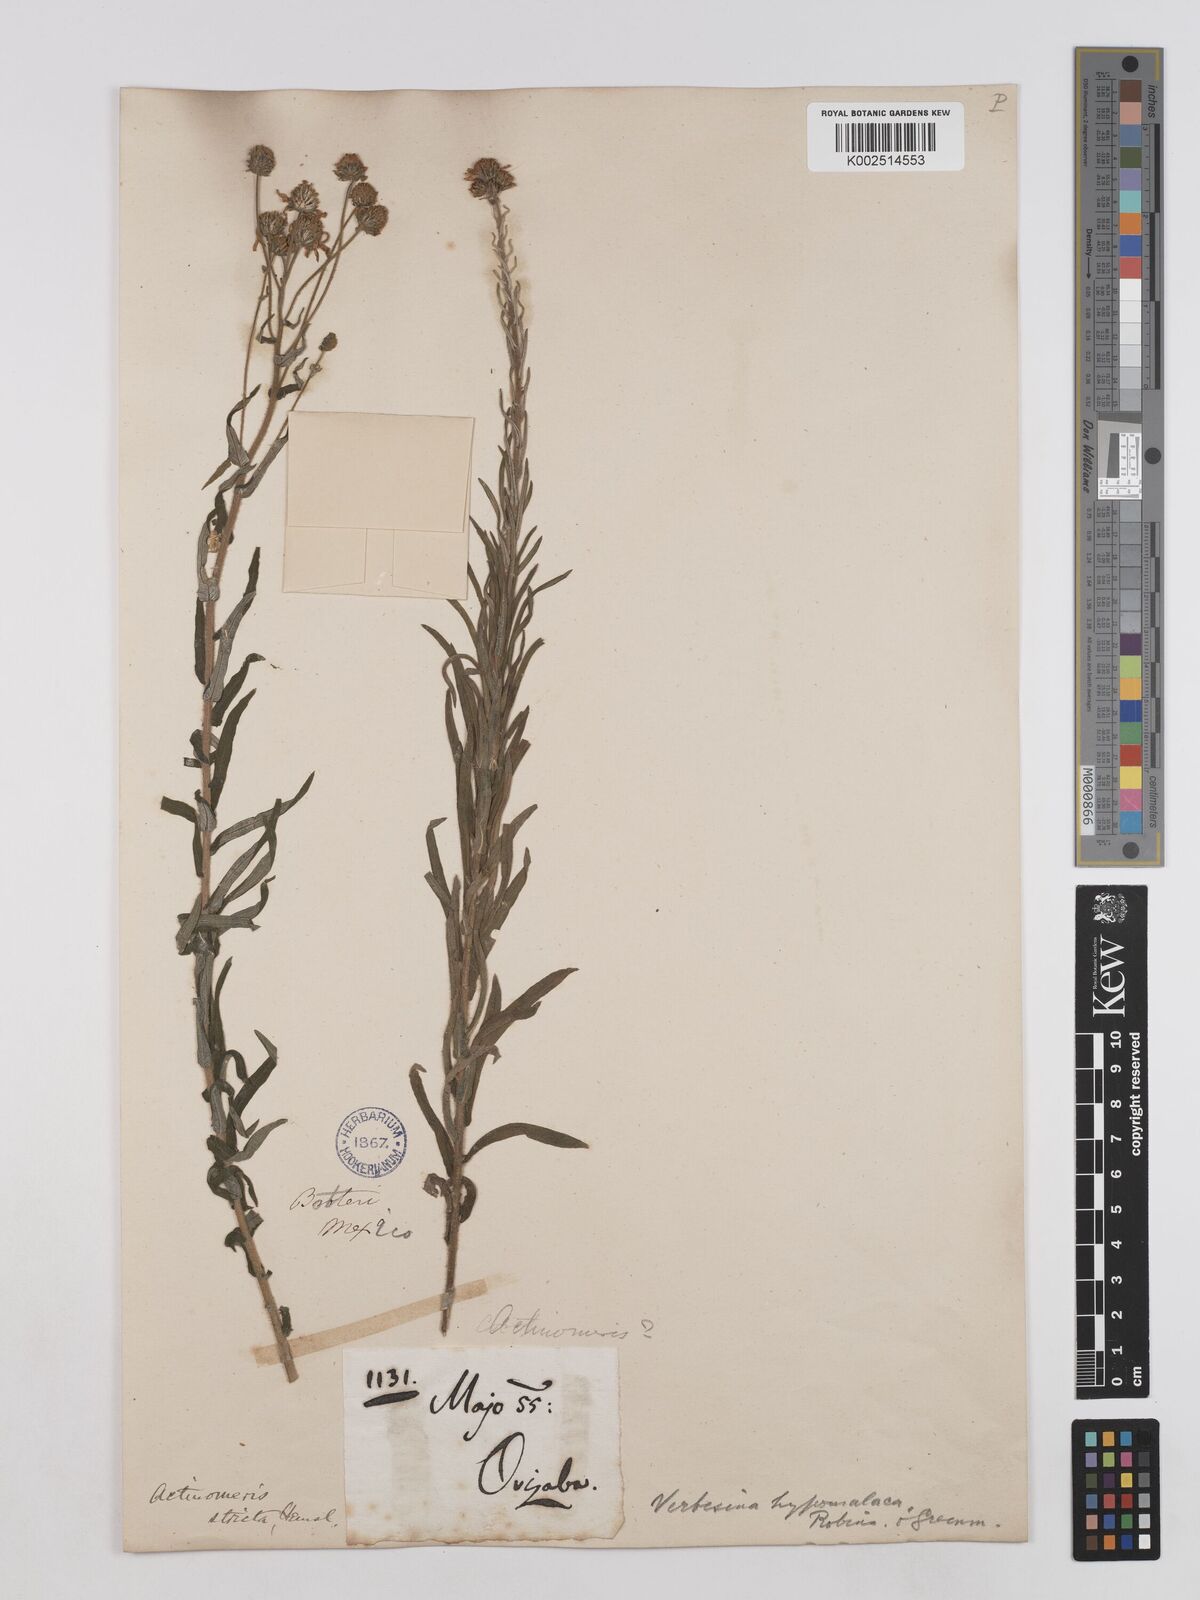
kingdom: Plantae
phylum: Tracheophyta
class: Magnoliopsida
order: Asterales
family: Asteraceae
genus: Verbesina
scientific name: Verbesina hypomalaca
